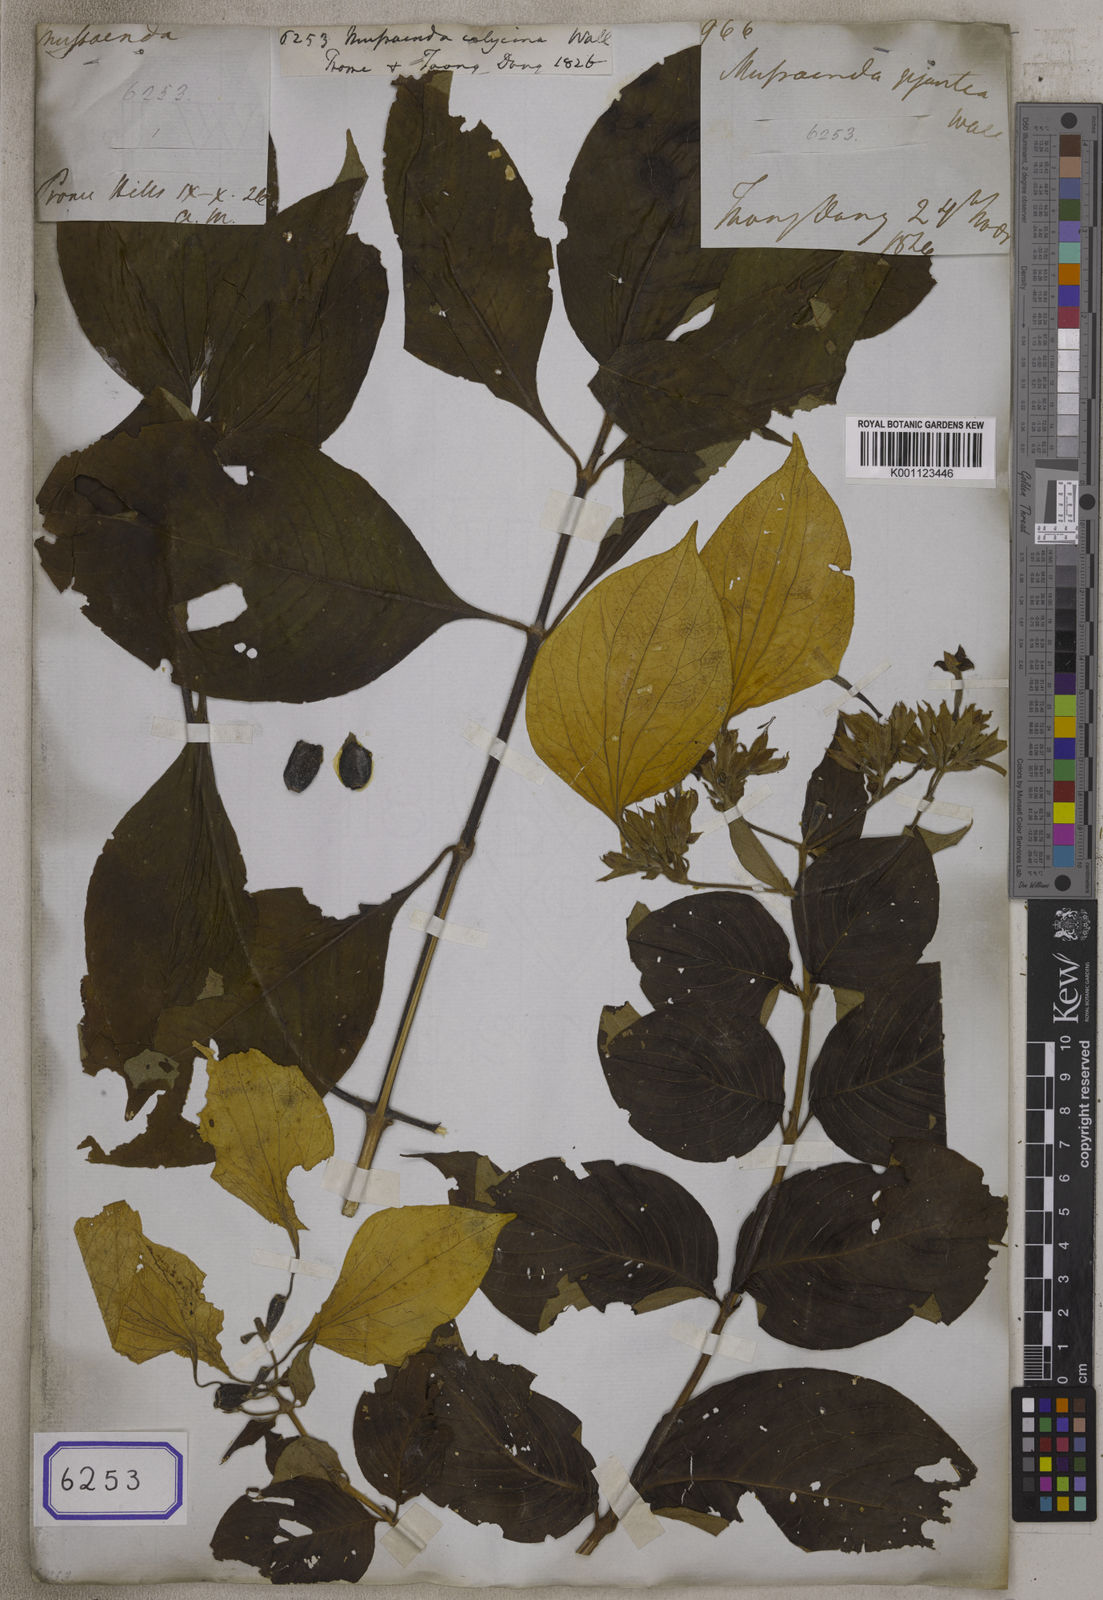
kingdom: Plantae
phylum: Tracheophyta
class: Magnoliopsida
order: Gentianales
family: Rubiaceae
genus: Mussaenda
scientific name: Mussaenda
